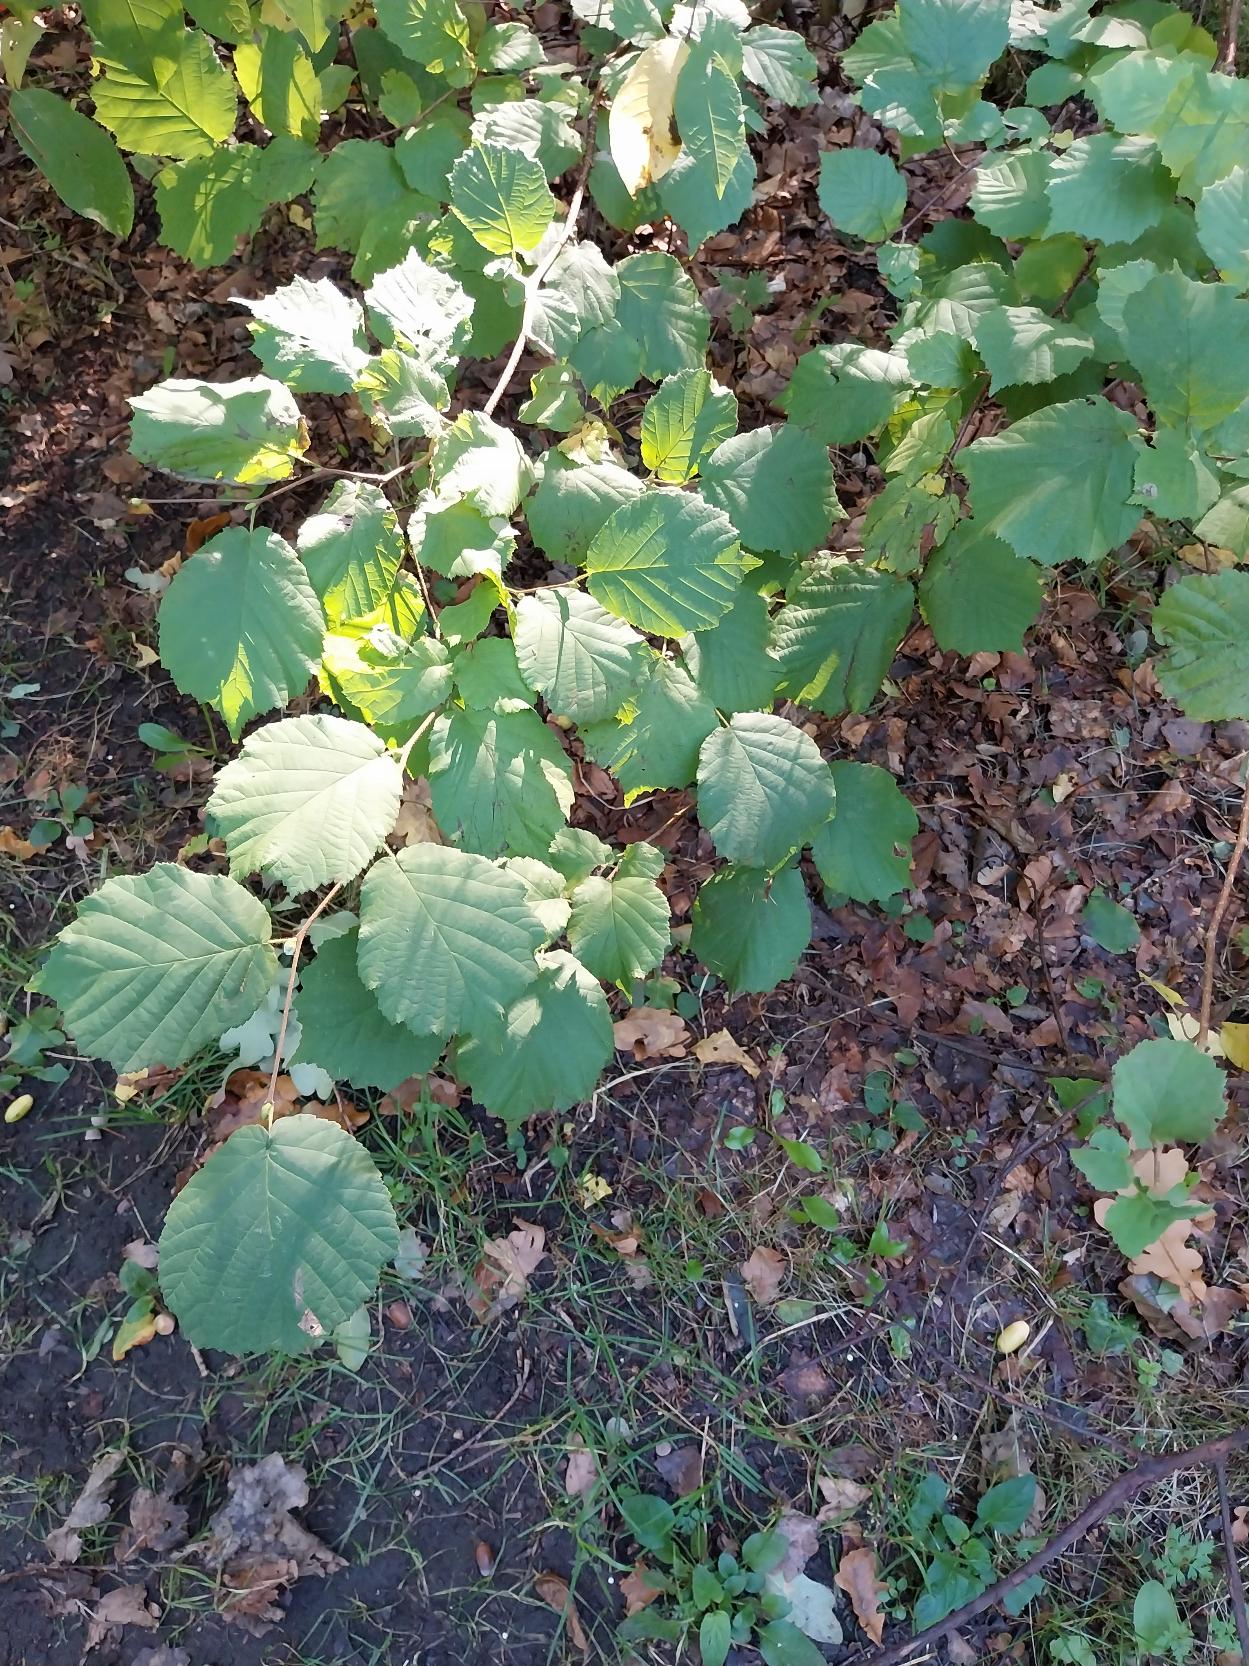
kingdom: Plantae
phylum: Tracheophyta
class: Magnoliopsida
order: Fagales
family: Betulaceae
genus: Corylus
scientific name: Corylus avellana
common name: Hassel
